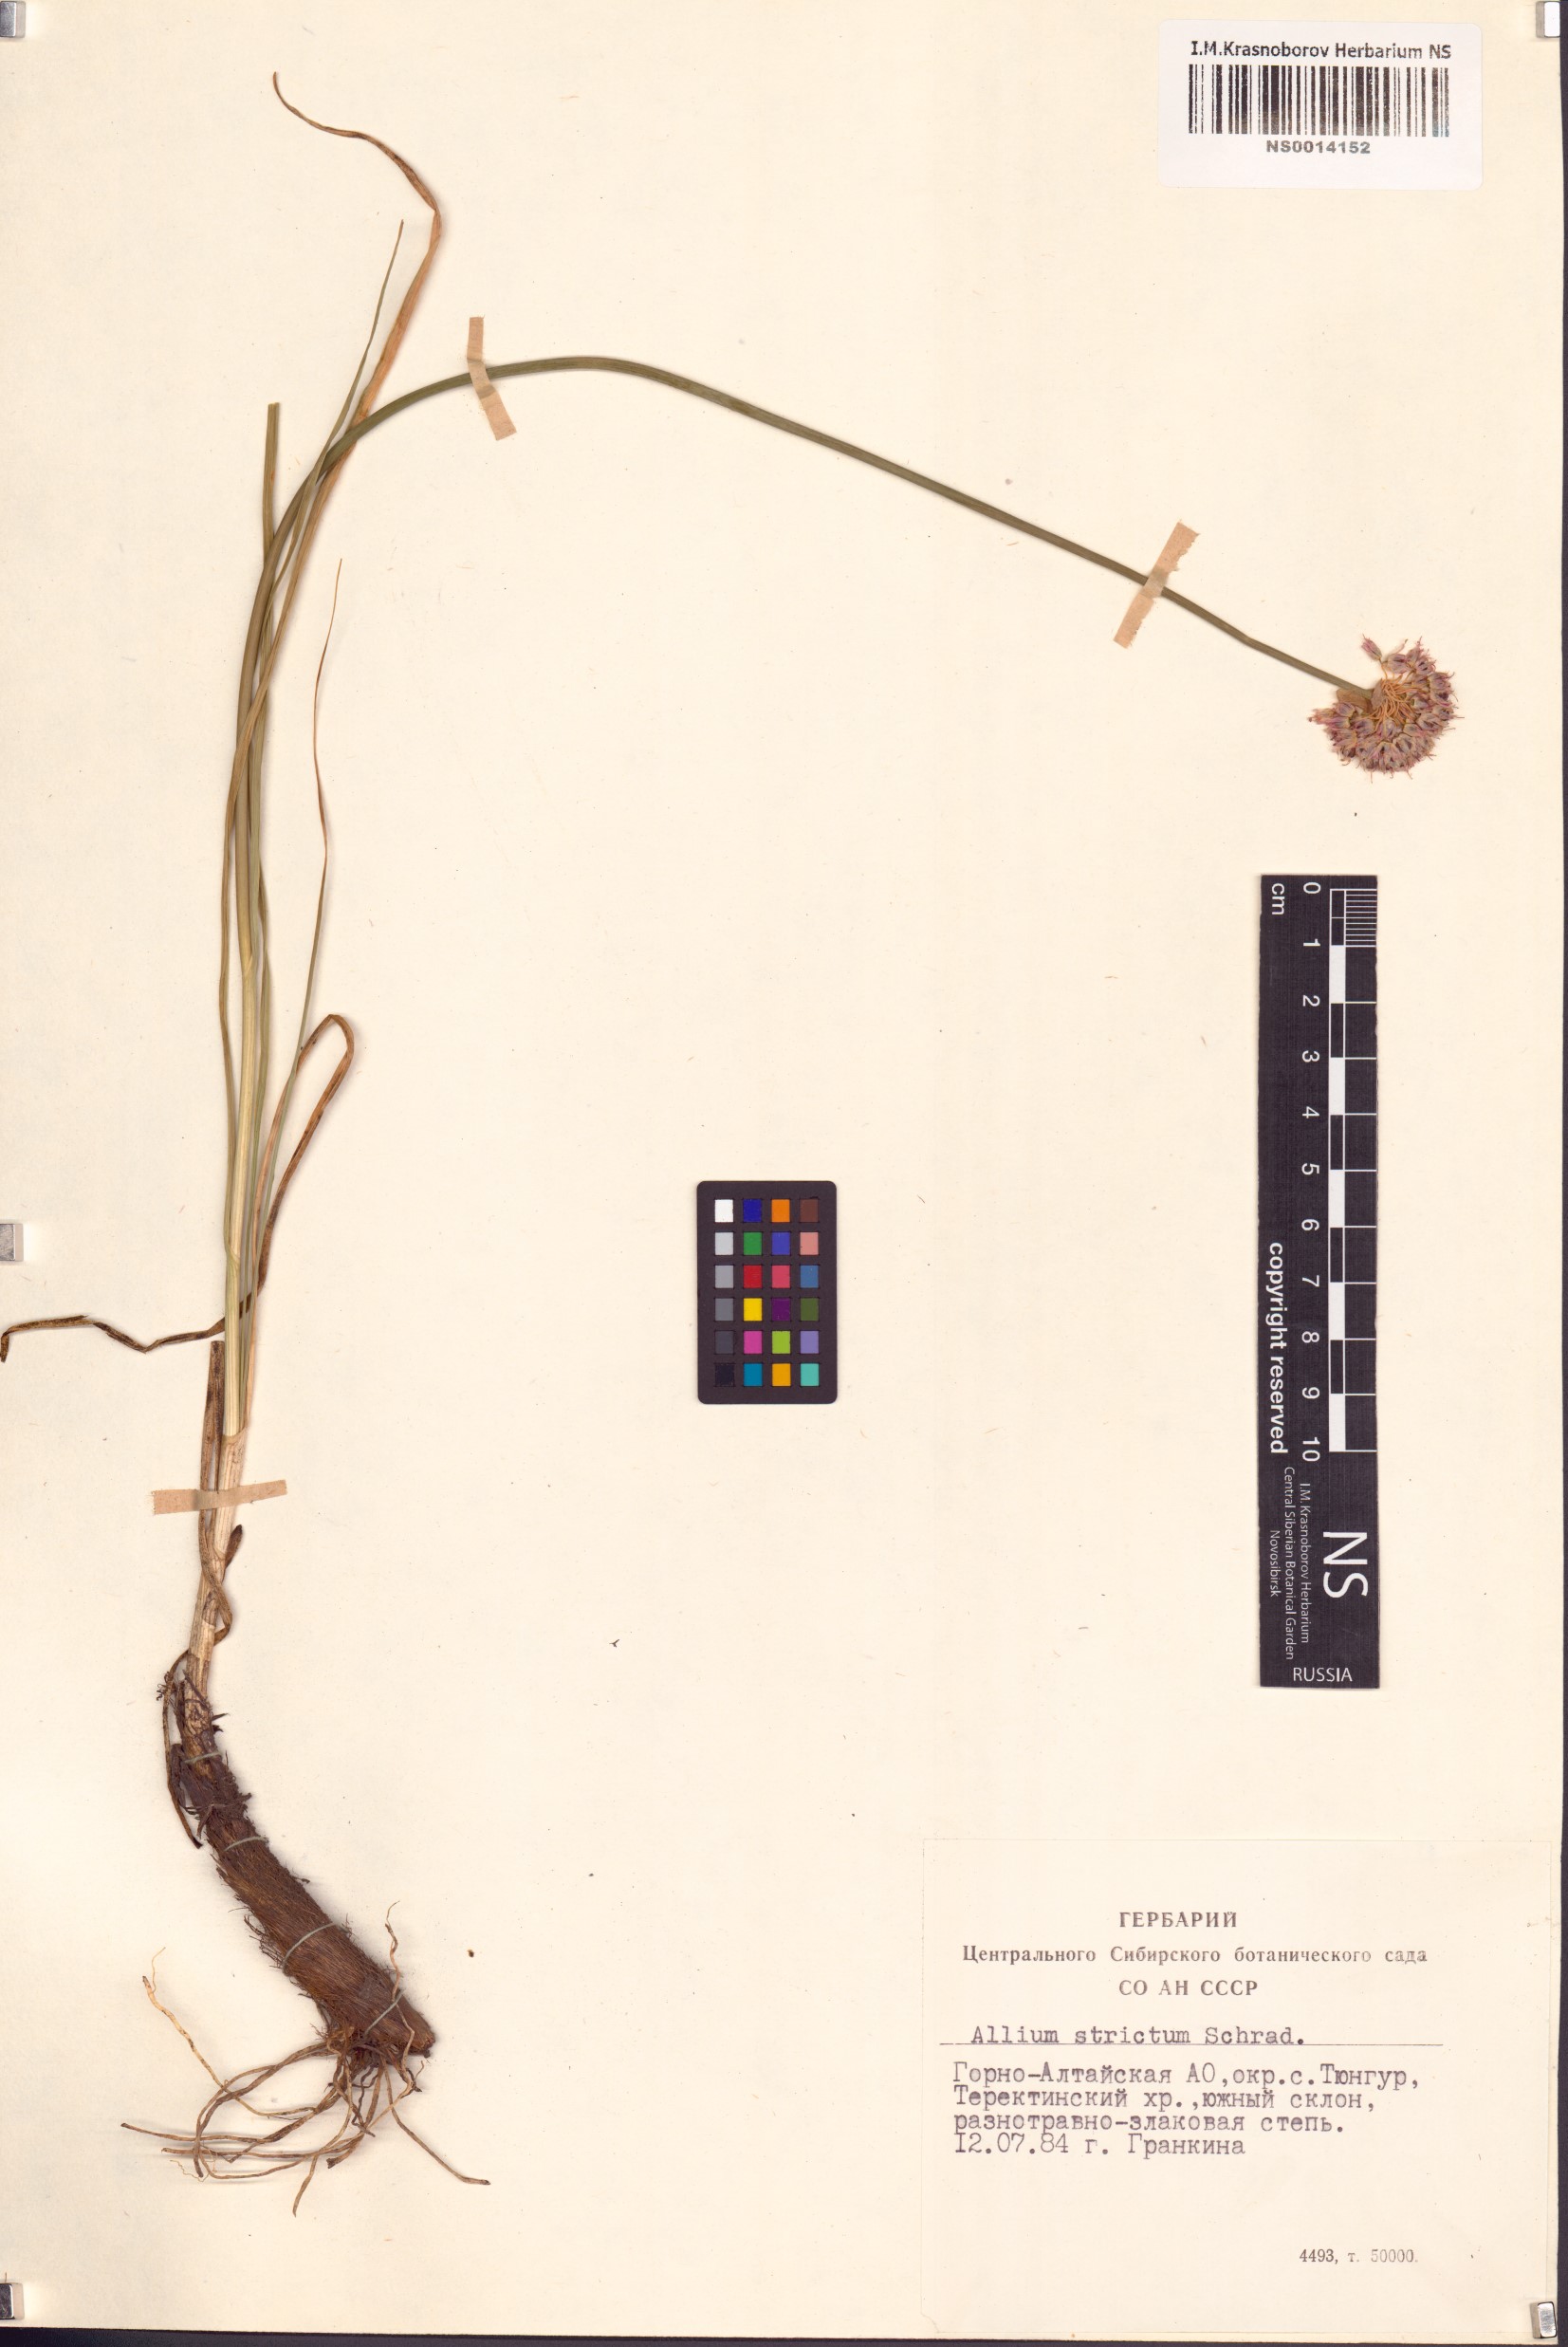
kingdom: Plantae
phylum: Tracheophyta
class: Liliopsida
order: Asparagales
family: Amaryllidaceae
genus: Allium
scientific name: Allium strictum
